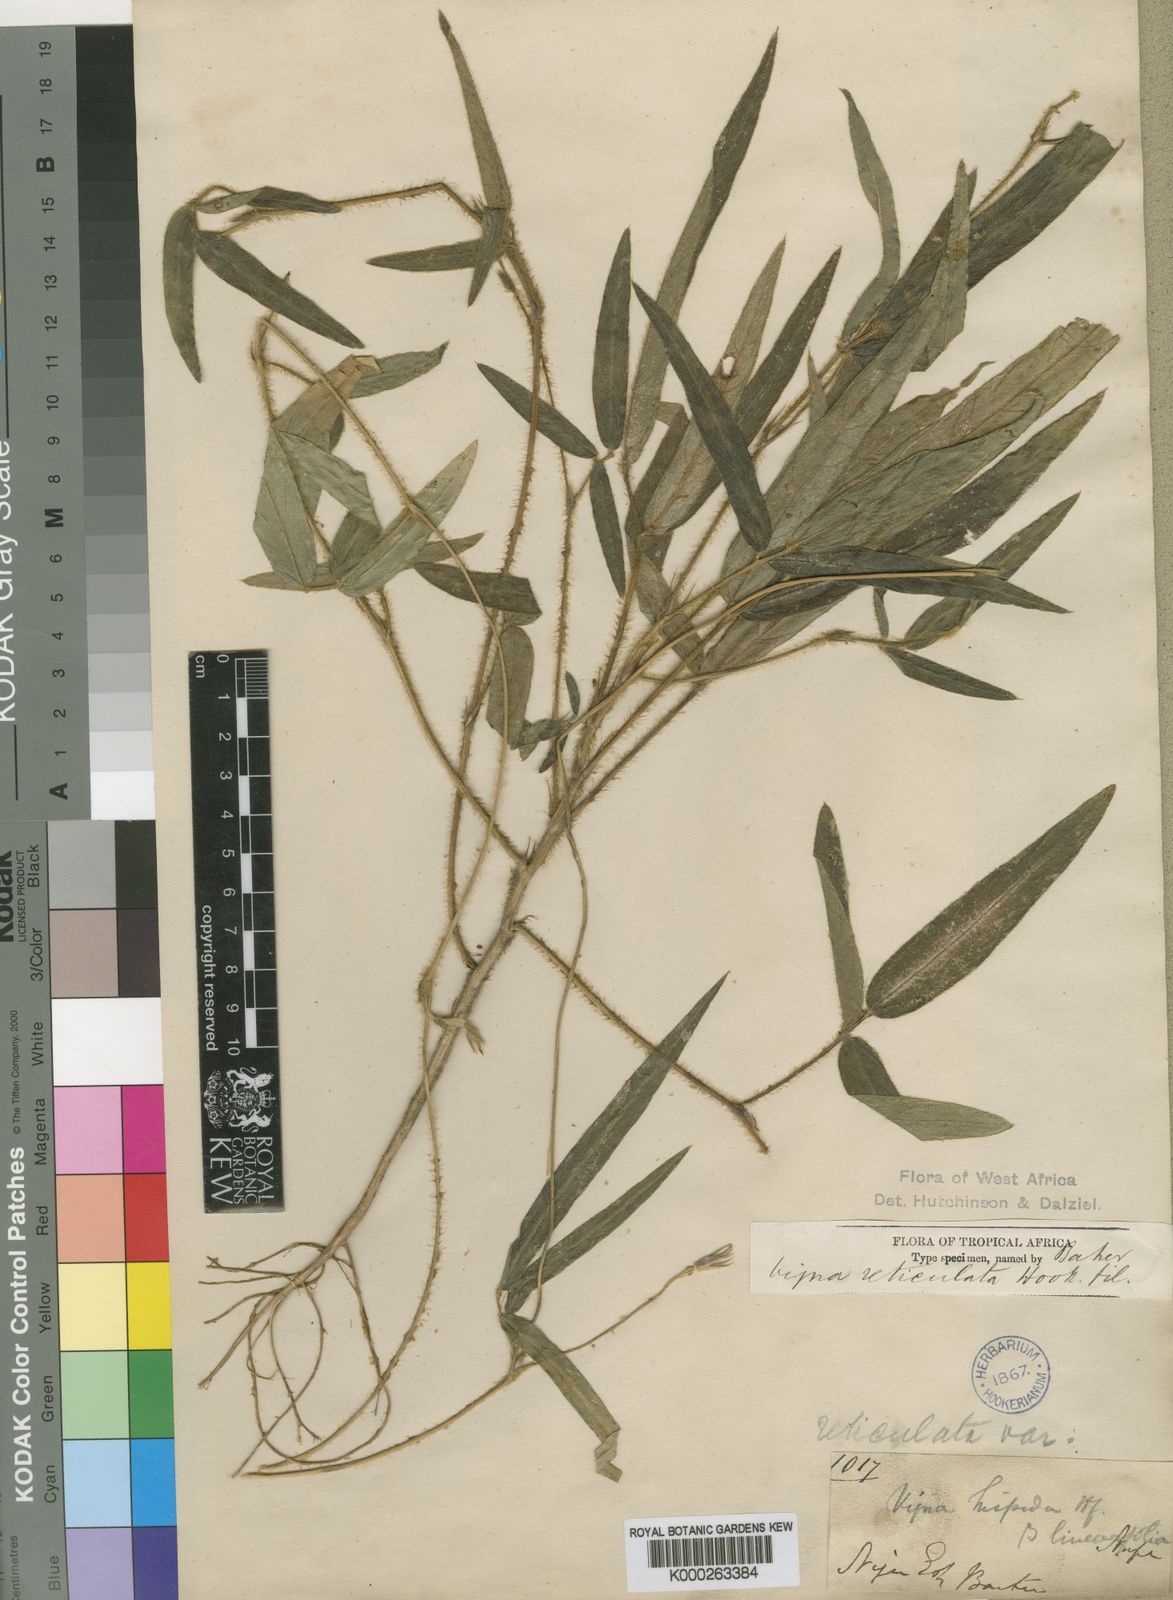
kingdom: Plantae
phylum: Tracheophyta
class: Magnoliopsida
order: Fabales
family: Fabaceae
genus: Vigna
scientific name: Vigna reticulata
